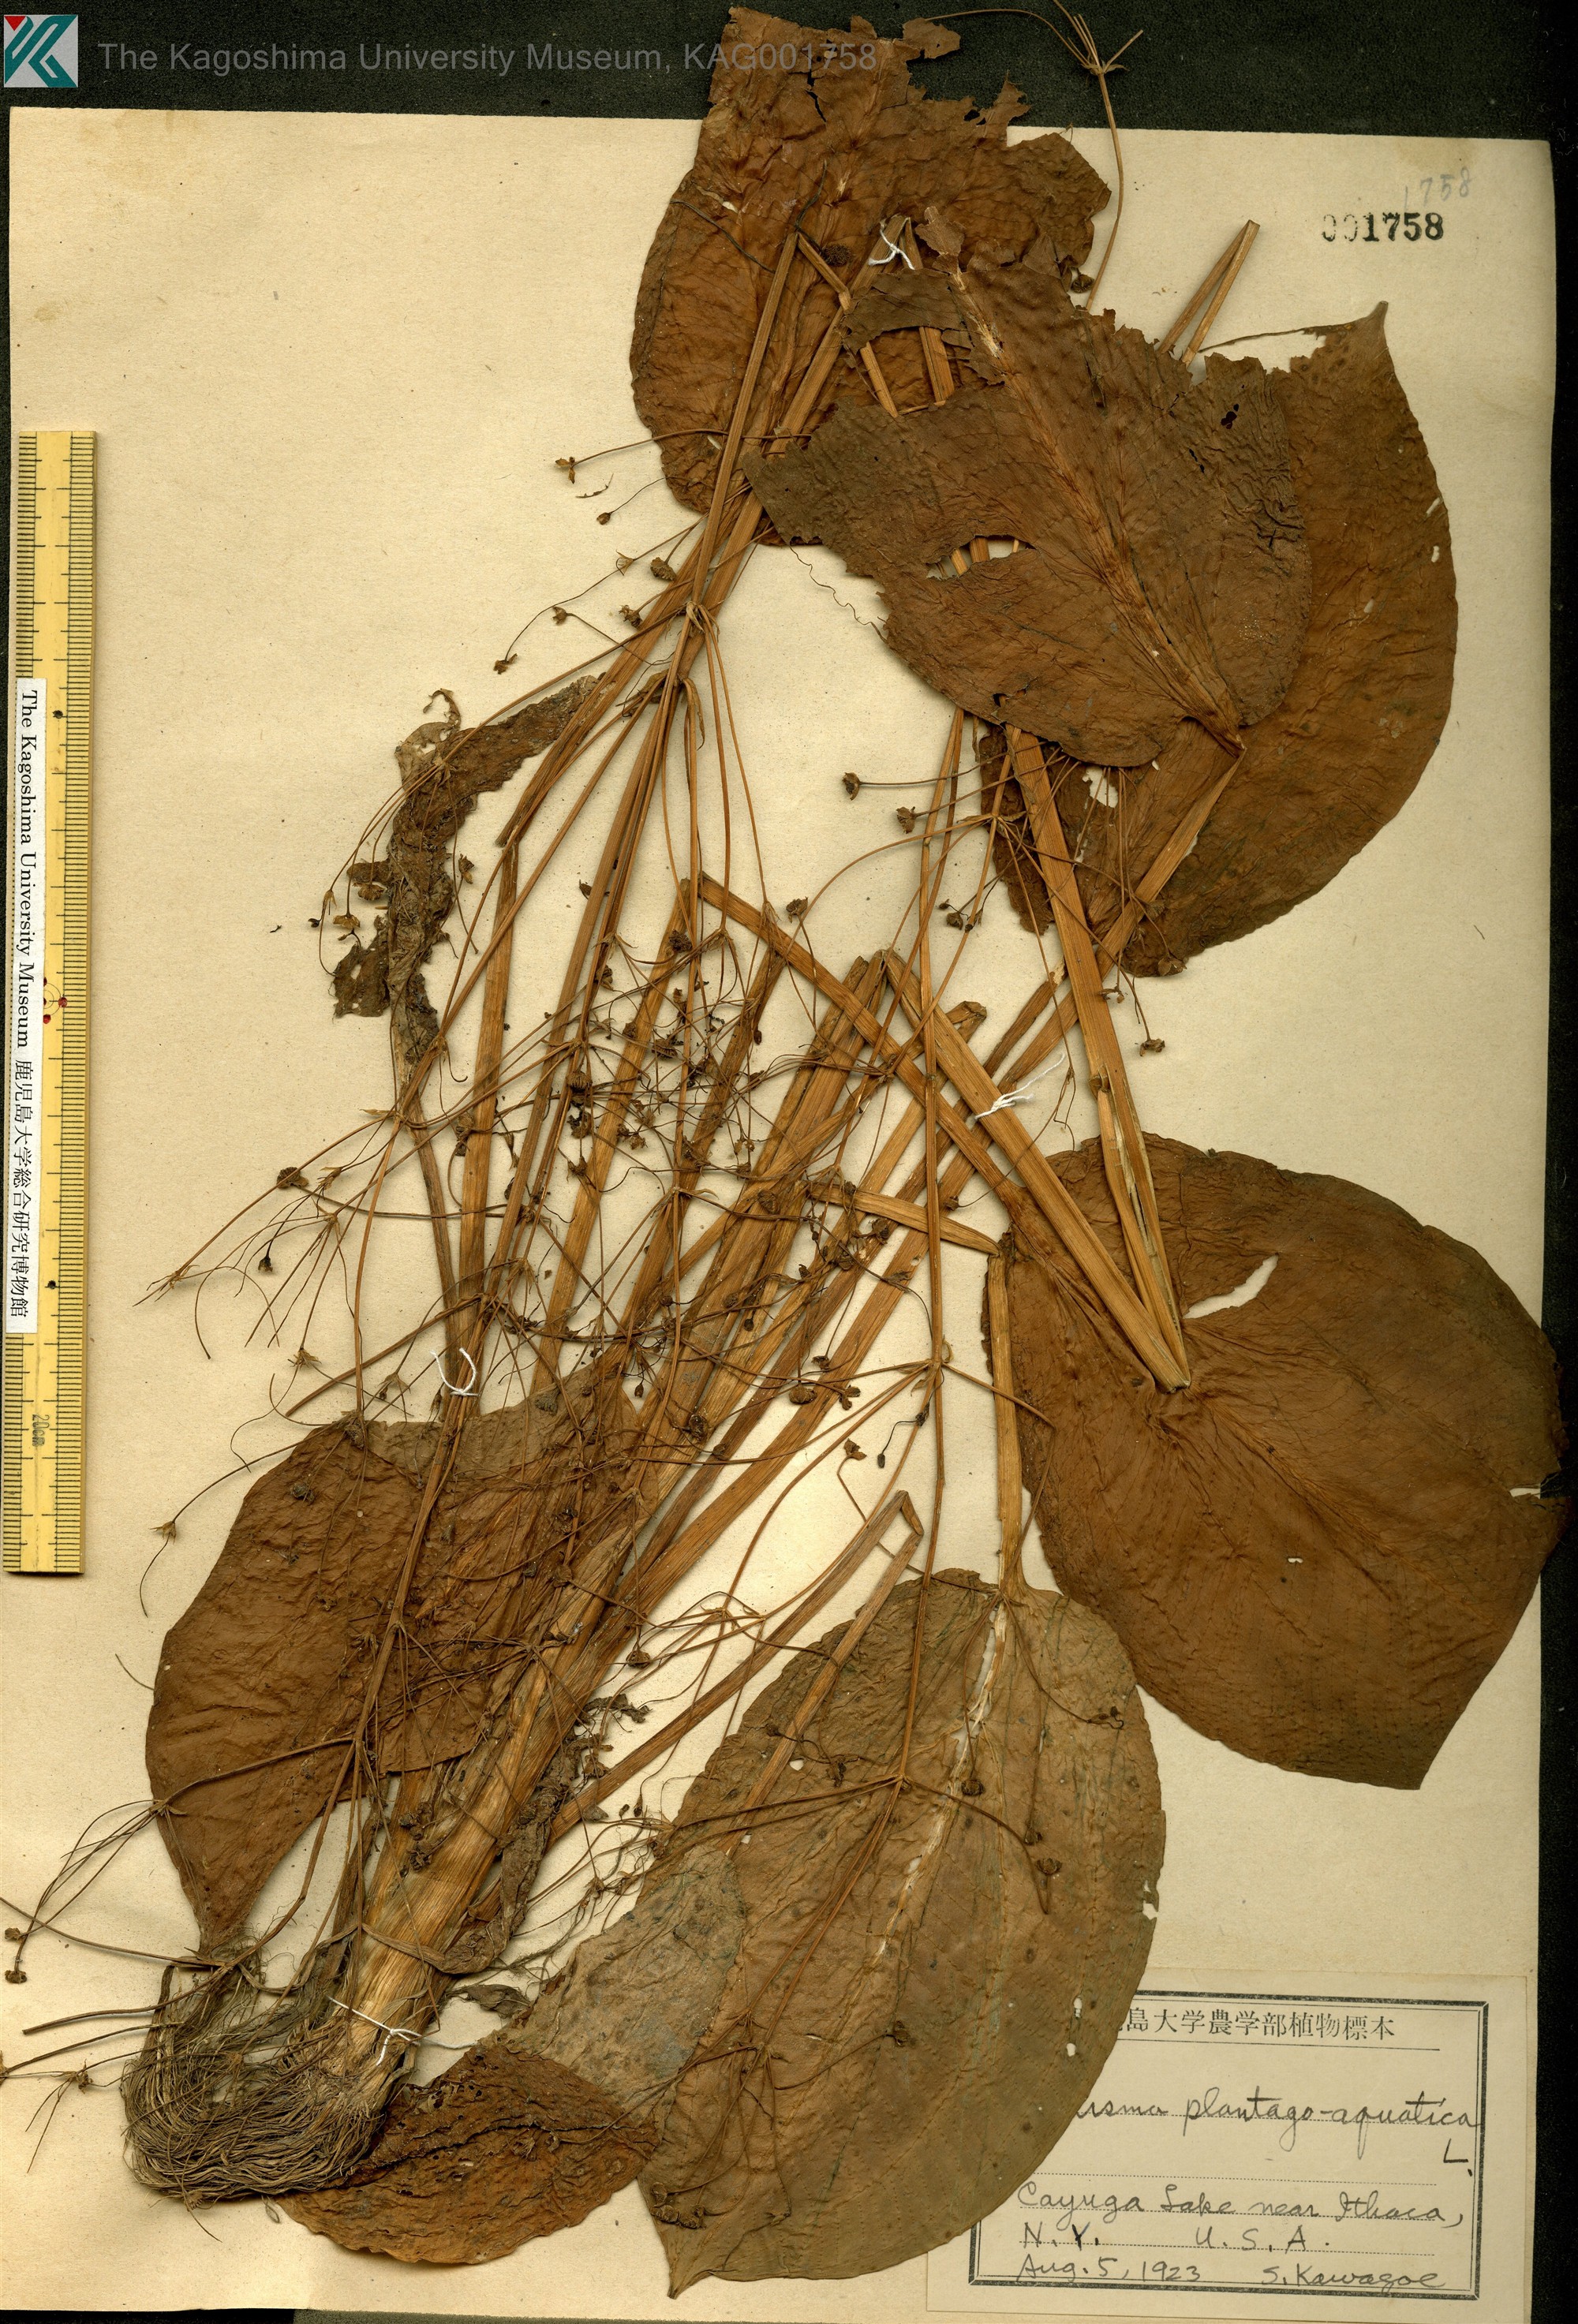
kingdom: Plantae
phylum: Tracheophyta
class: Liliopsida
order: Alismatales
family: Alismataceae
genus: Alisma
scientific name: Alisma plantago-aquatica
